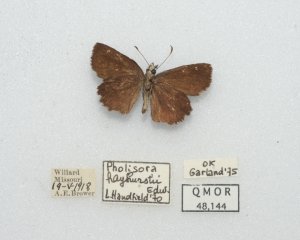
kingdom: Animalia
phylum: Arthropoda
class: Insecta
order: Lepidoptera
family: Hesperiidae
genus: Staphylus
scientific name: Staphylus mazans
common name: Hayhurst's Scallopwing
